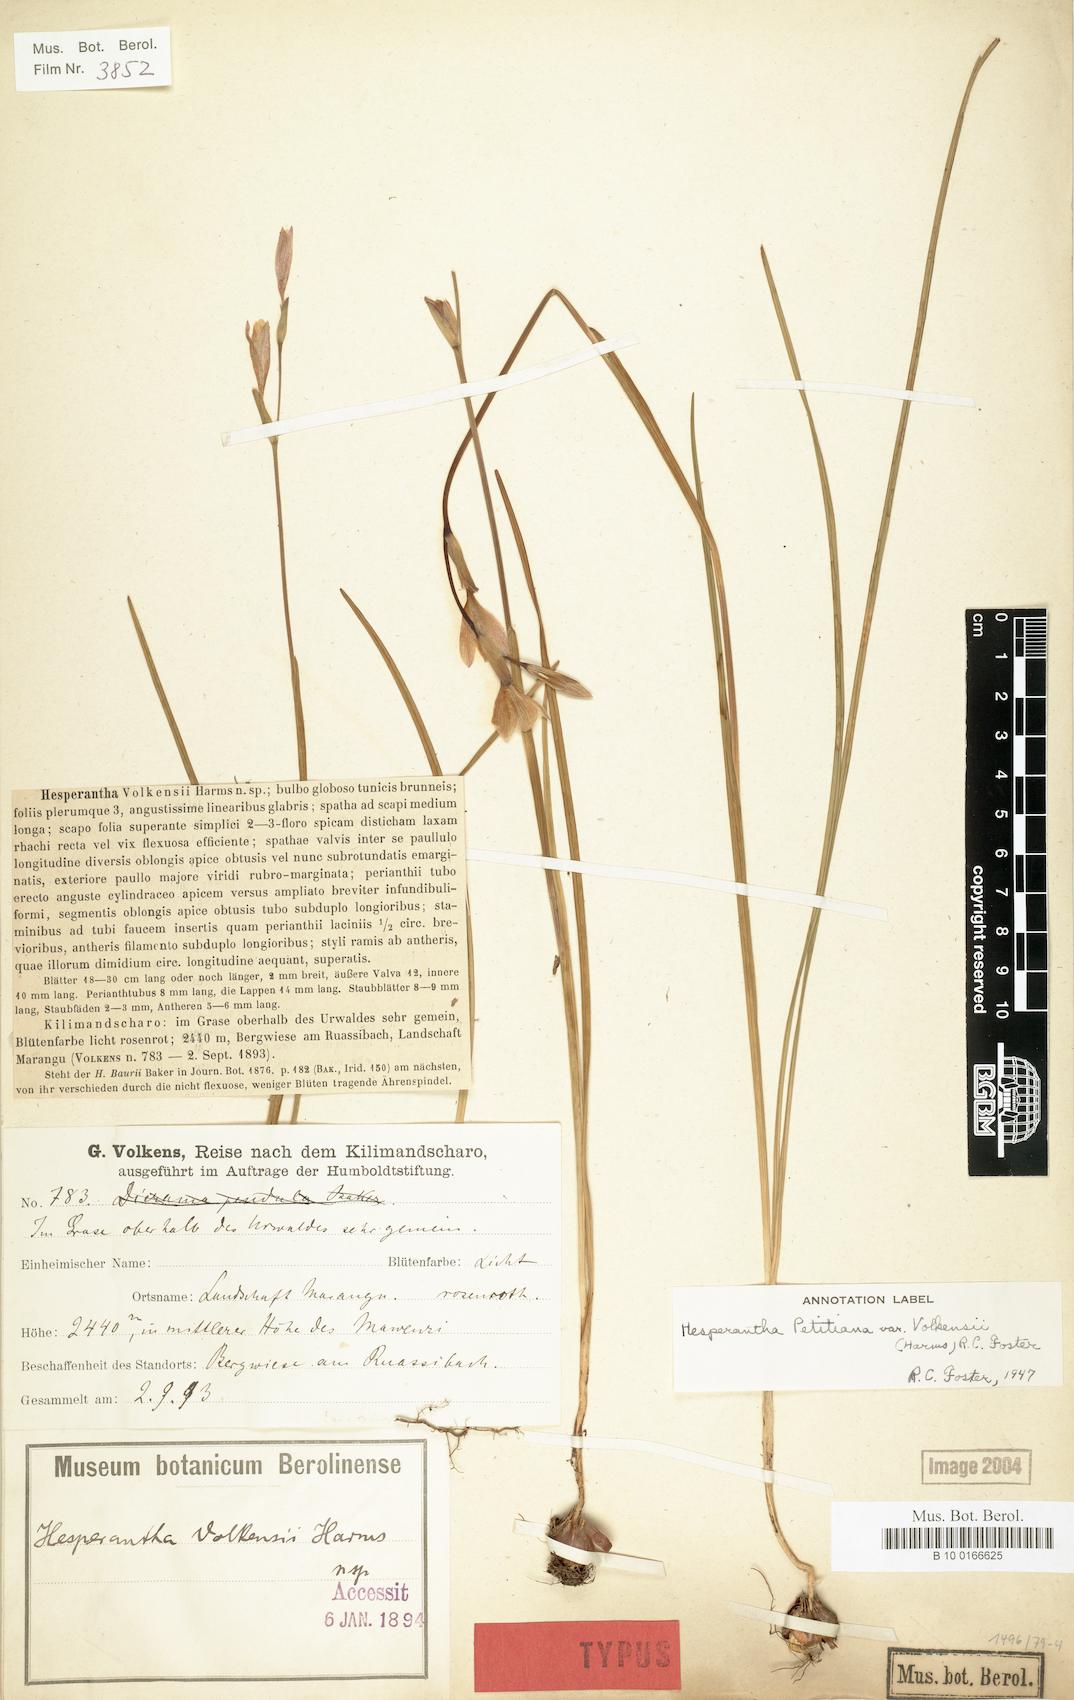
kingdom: Plantae
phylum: Tracheophyta
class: Liliopsida
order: Asparagales
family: Iridaceae
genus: Hesperantha
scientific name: Hesperantha petitiana
